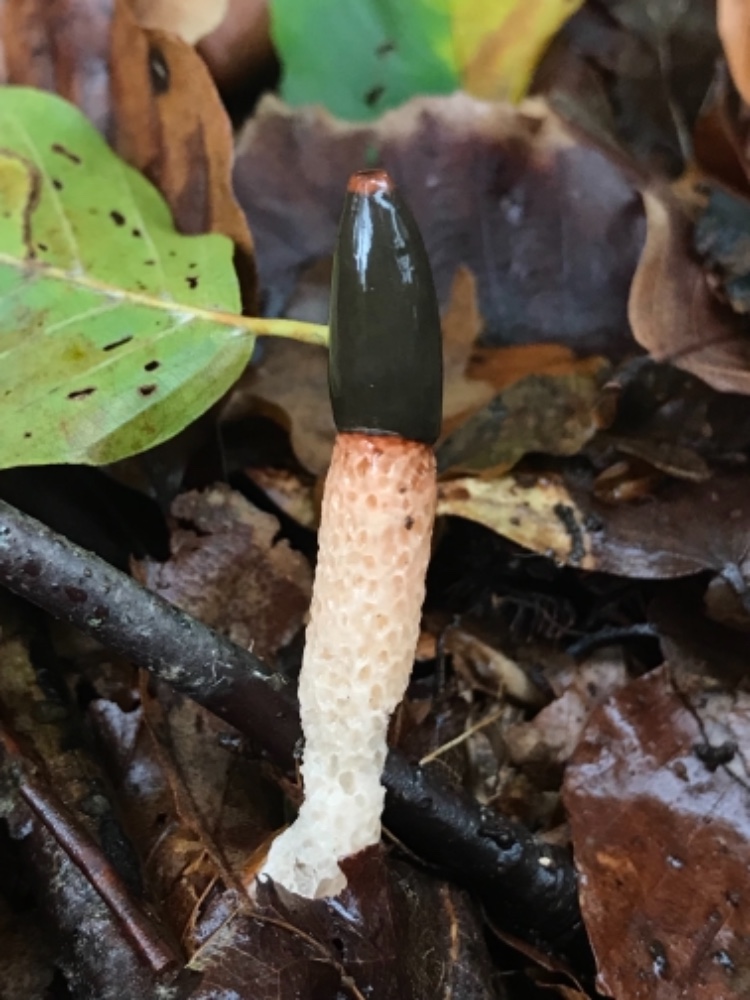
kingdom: Fungi
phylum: Basidiomycota
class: Agaricomycetes
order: Phallales
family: Phallaceae
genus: Mutinus
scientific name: Mutinus caninus
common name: hunde-stinksvamp
